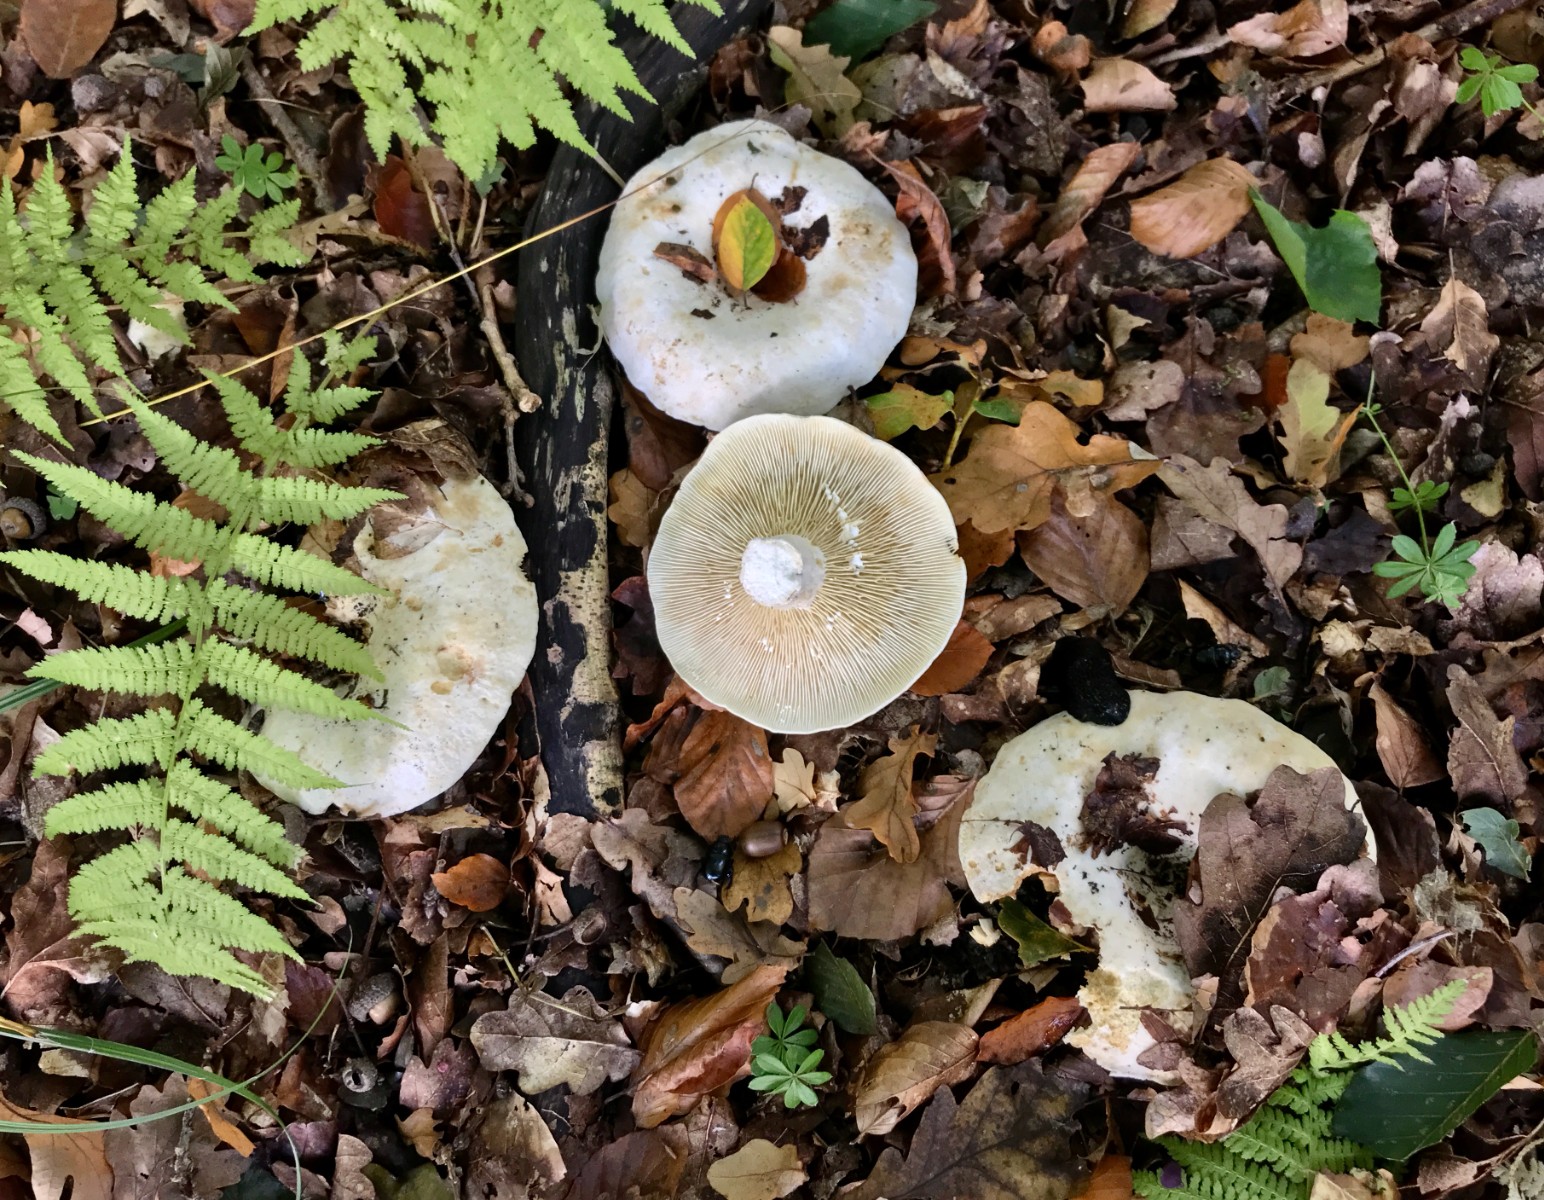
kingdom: Fungi
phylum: Basidiomycota
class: Agaricomycetes
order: Russulales
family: Russulaceae
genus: Lactifluus
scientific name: Lactifluus
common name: mælkehat
